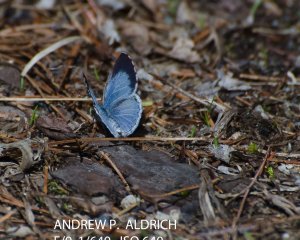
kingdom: Animalia
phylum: Arthropoda
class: Insecta
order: Lepidoptera
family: Lycaenidae
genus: Celastrina
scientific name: Celastrina lucia
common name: Northern Spring Azure
